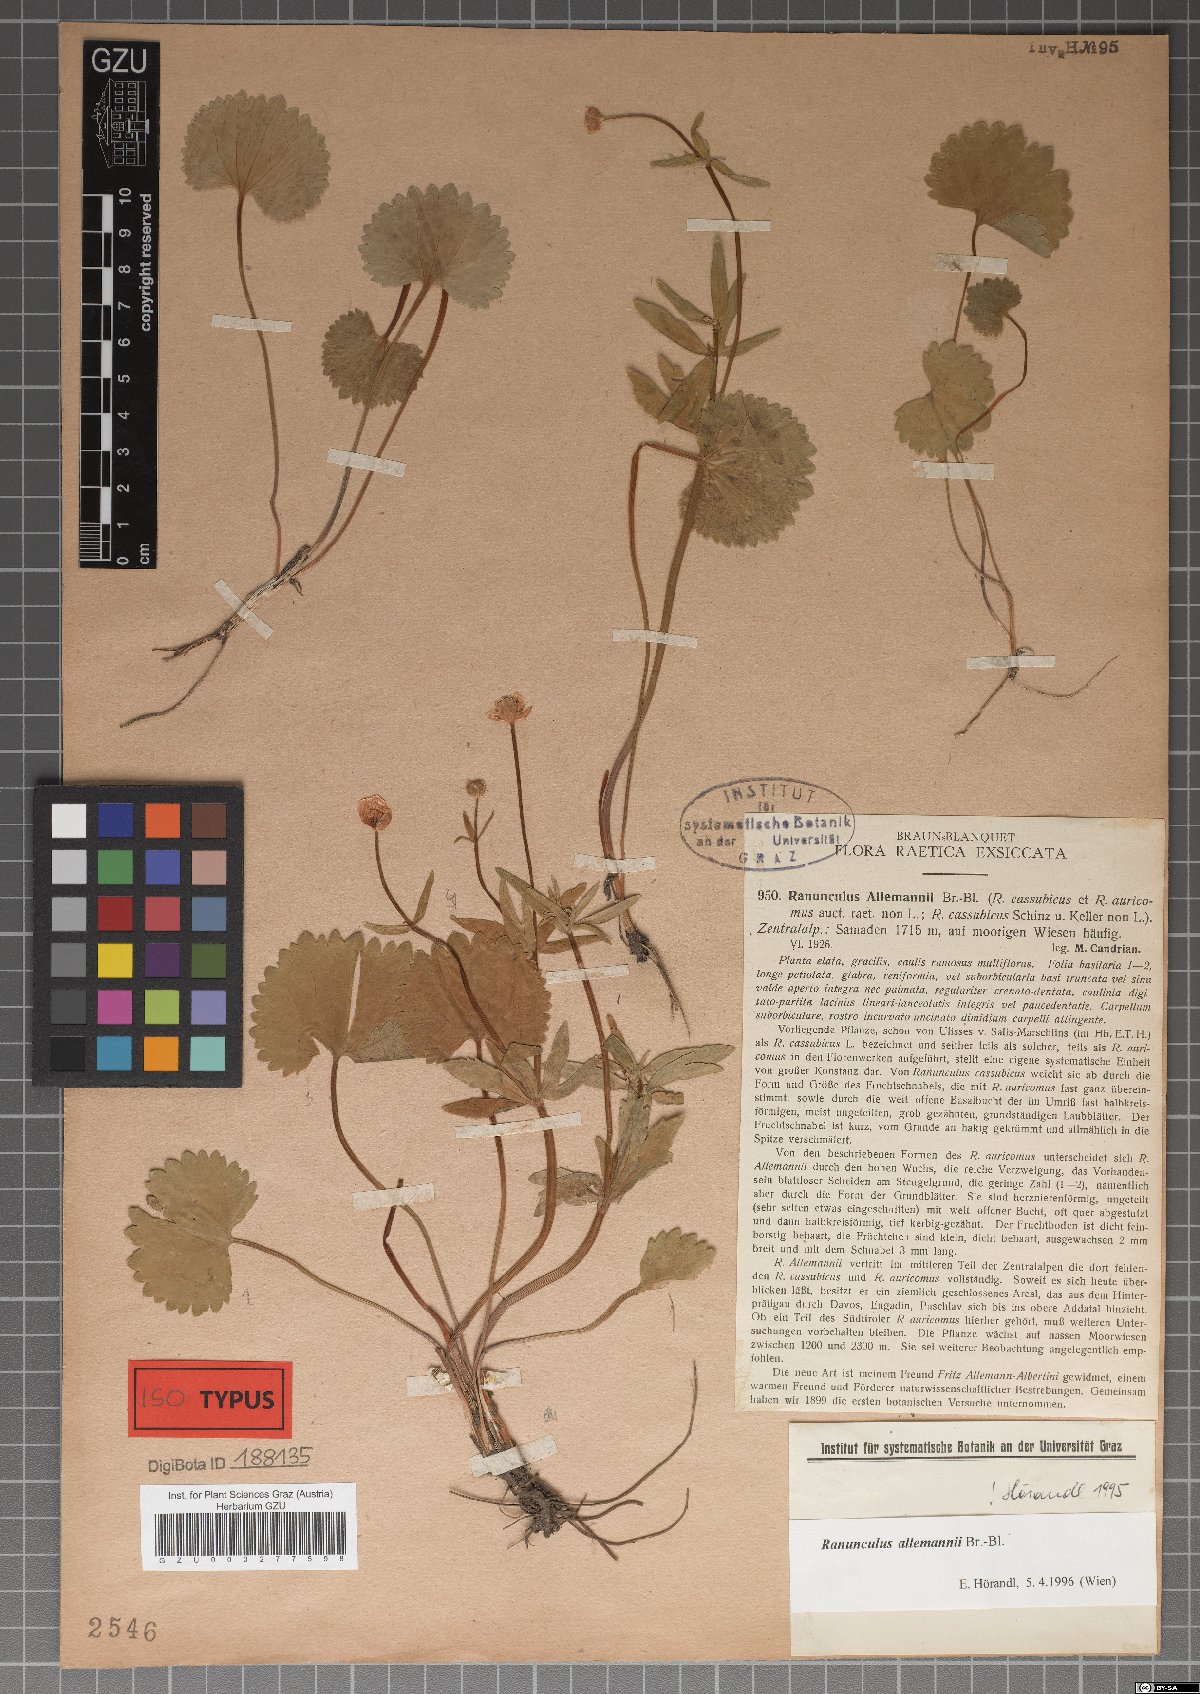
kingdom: Plantae
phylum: Tracheophyta
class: Magnoliopsida
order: Ranunculales
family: Ranunculaceae
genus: Ranunculus
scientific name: Ranunculus allemannii
